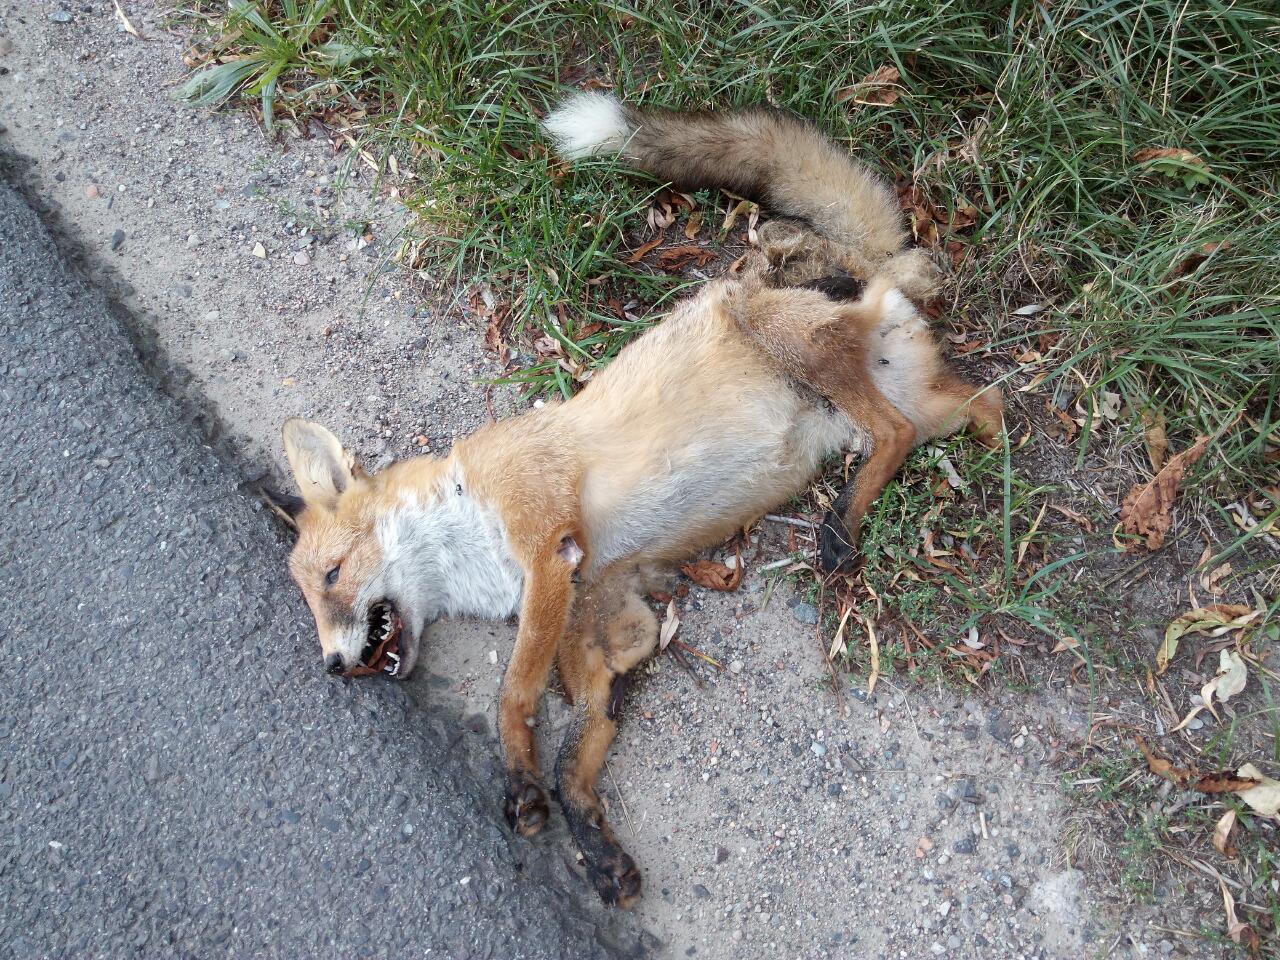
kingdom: Animalia
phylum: Chordata
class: Mammalia
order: Carnivora
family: Canidae
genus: Vulpes
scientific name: Vulpes vulpes
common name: Red fox
